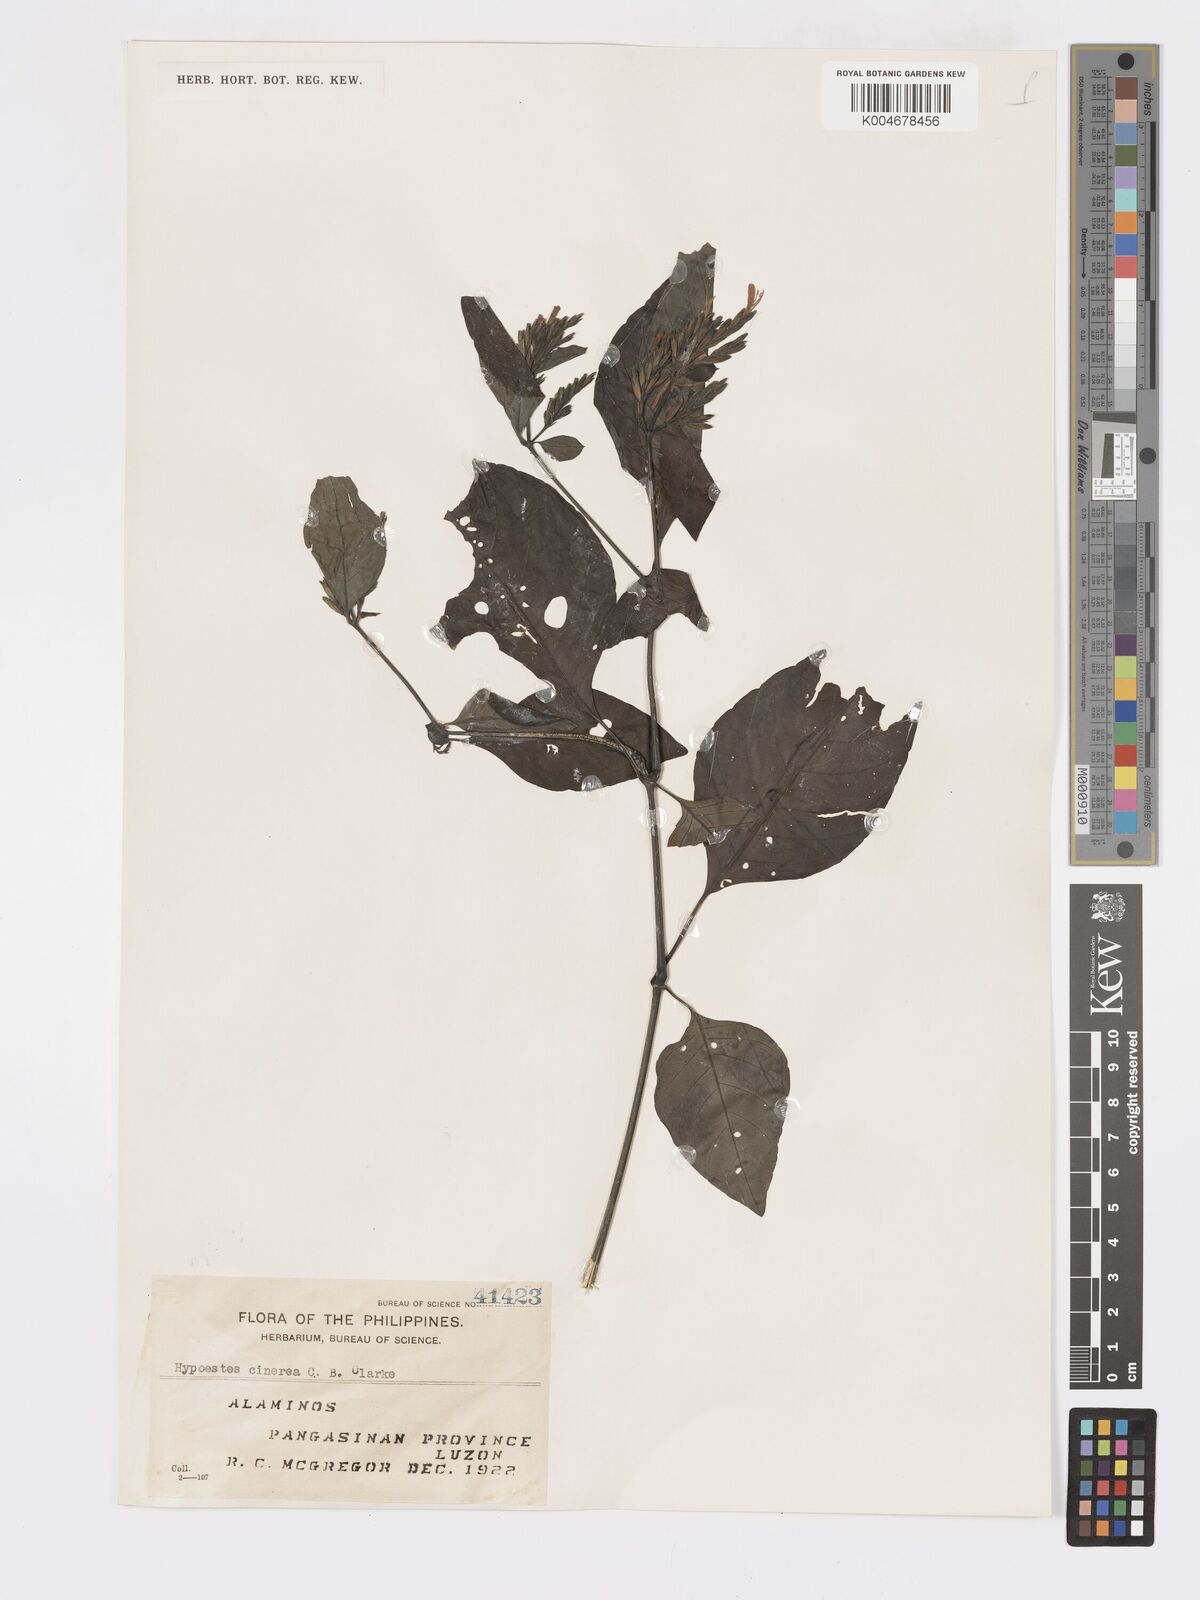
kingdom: Plantae
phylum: Tracheophyta
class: Magnoliopsida
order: Lamiales
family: Acanthaceae
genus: Hypoestes
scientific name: Hypoestes
